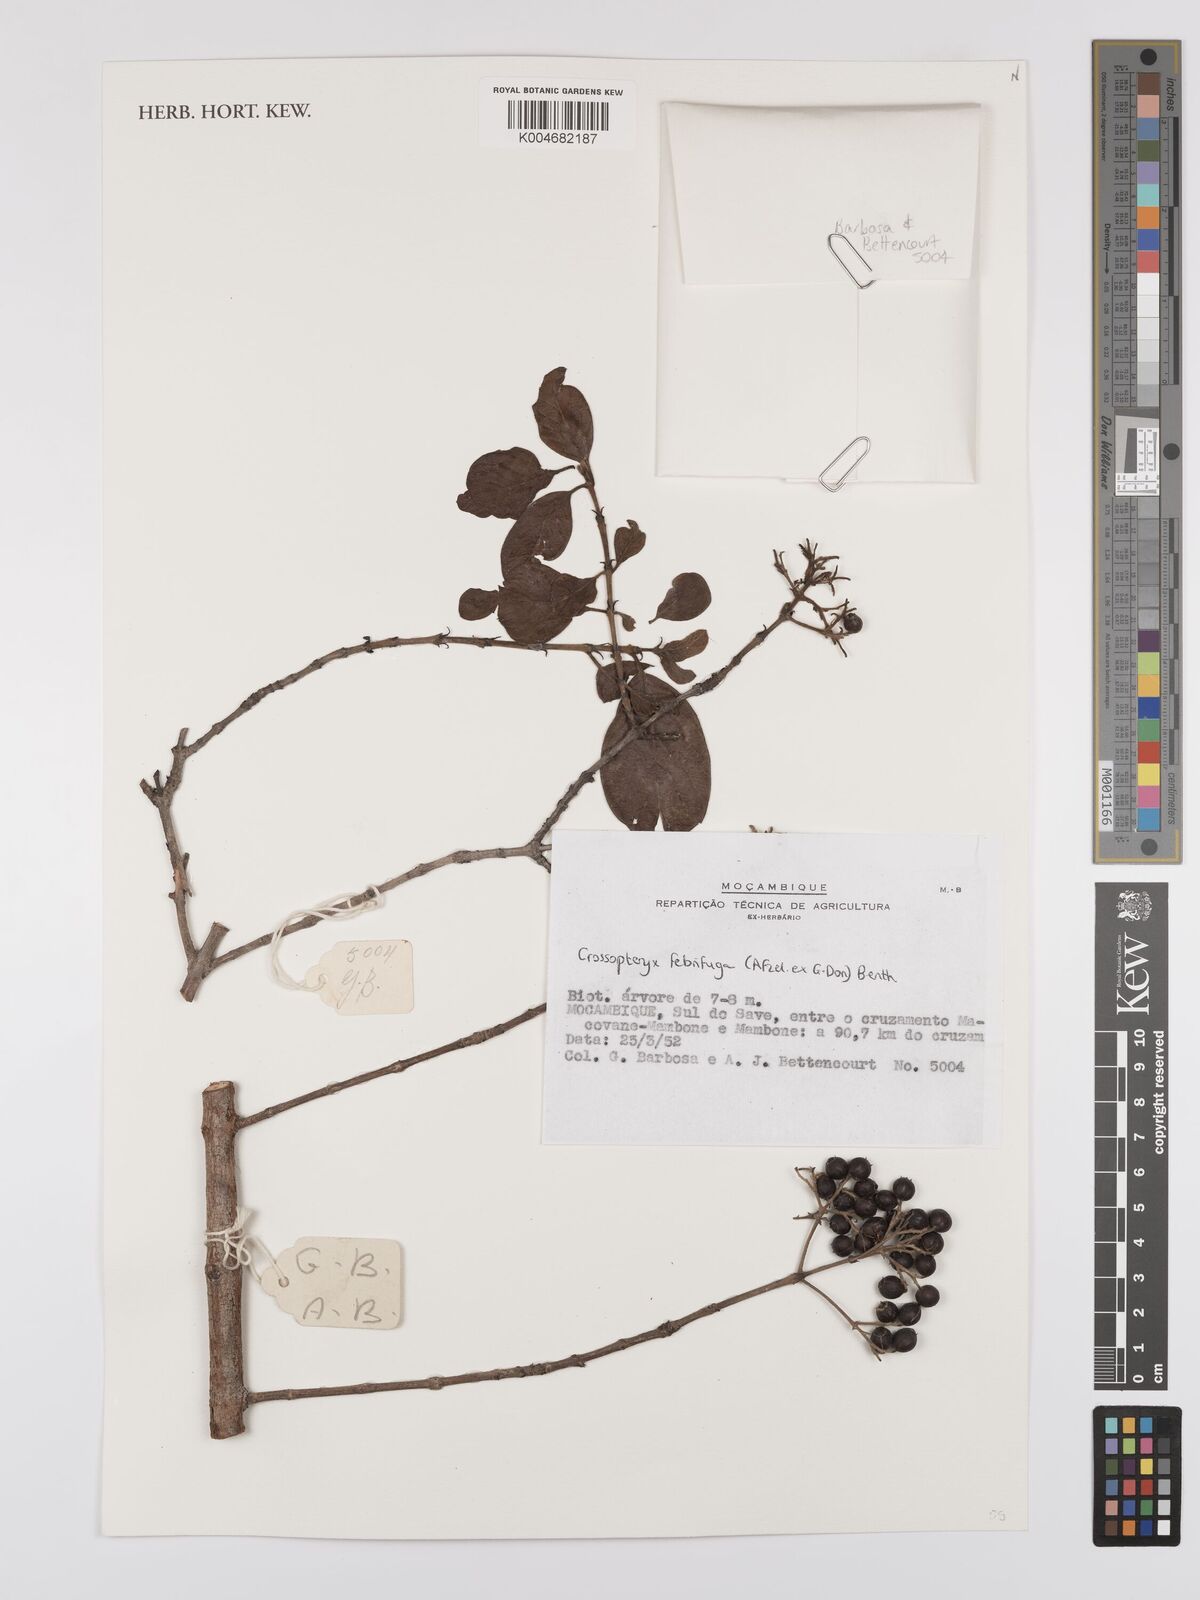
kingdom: Plantae
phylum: Tracheophyta
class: Magnoliopsida
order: Gentianales
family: Rubiaceae
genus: Crossopteryx
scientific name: Crossopteryx febrifuga
